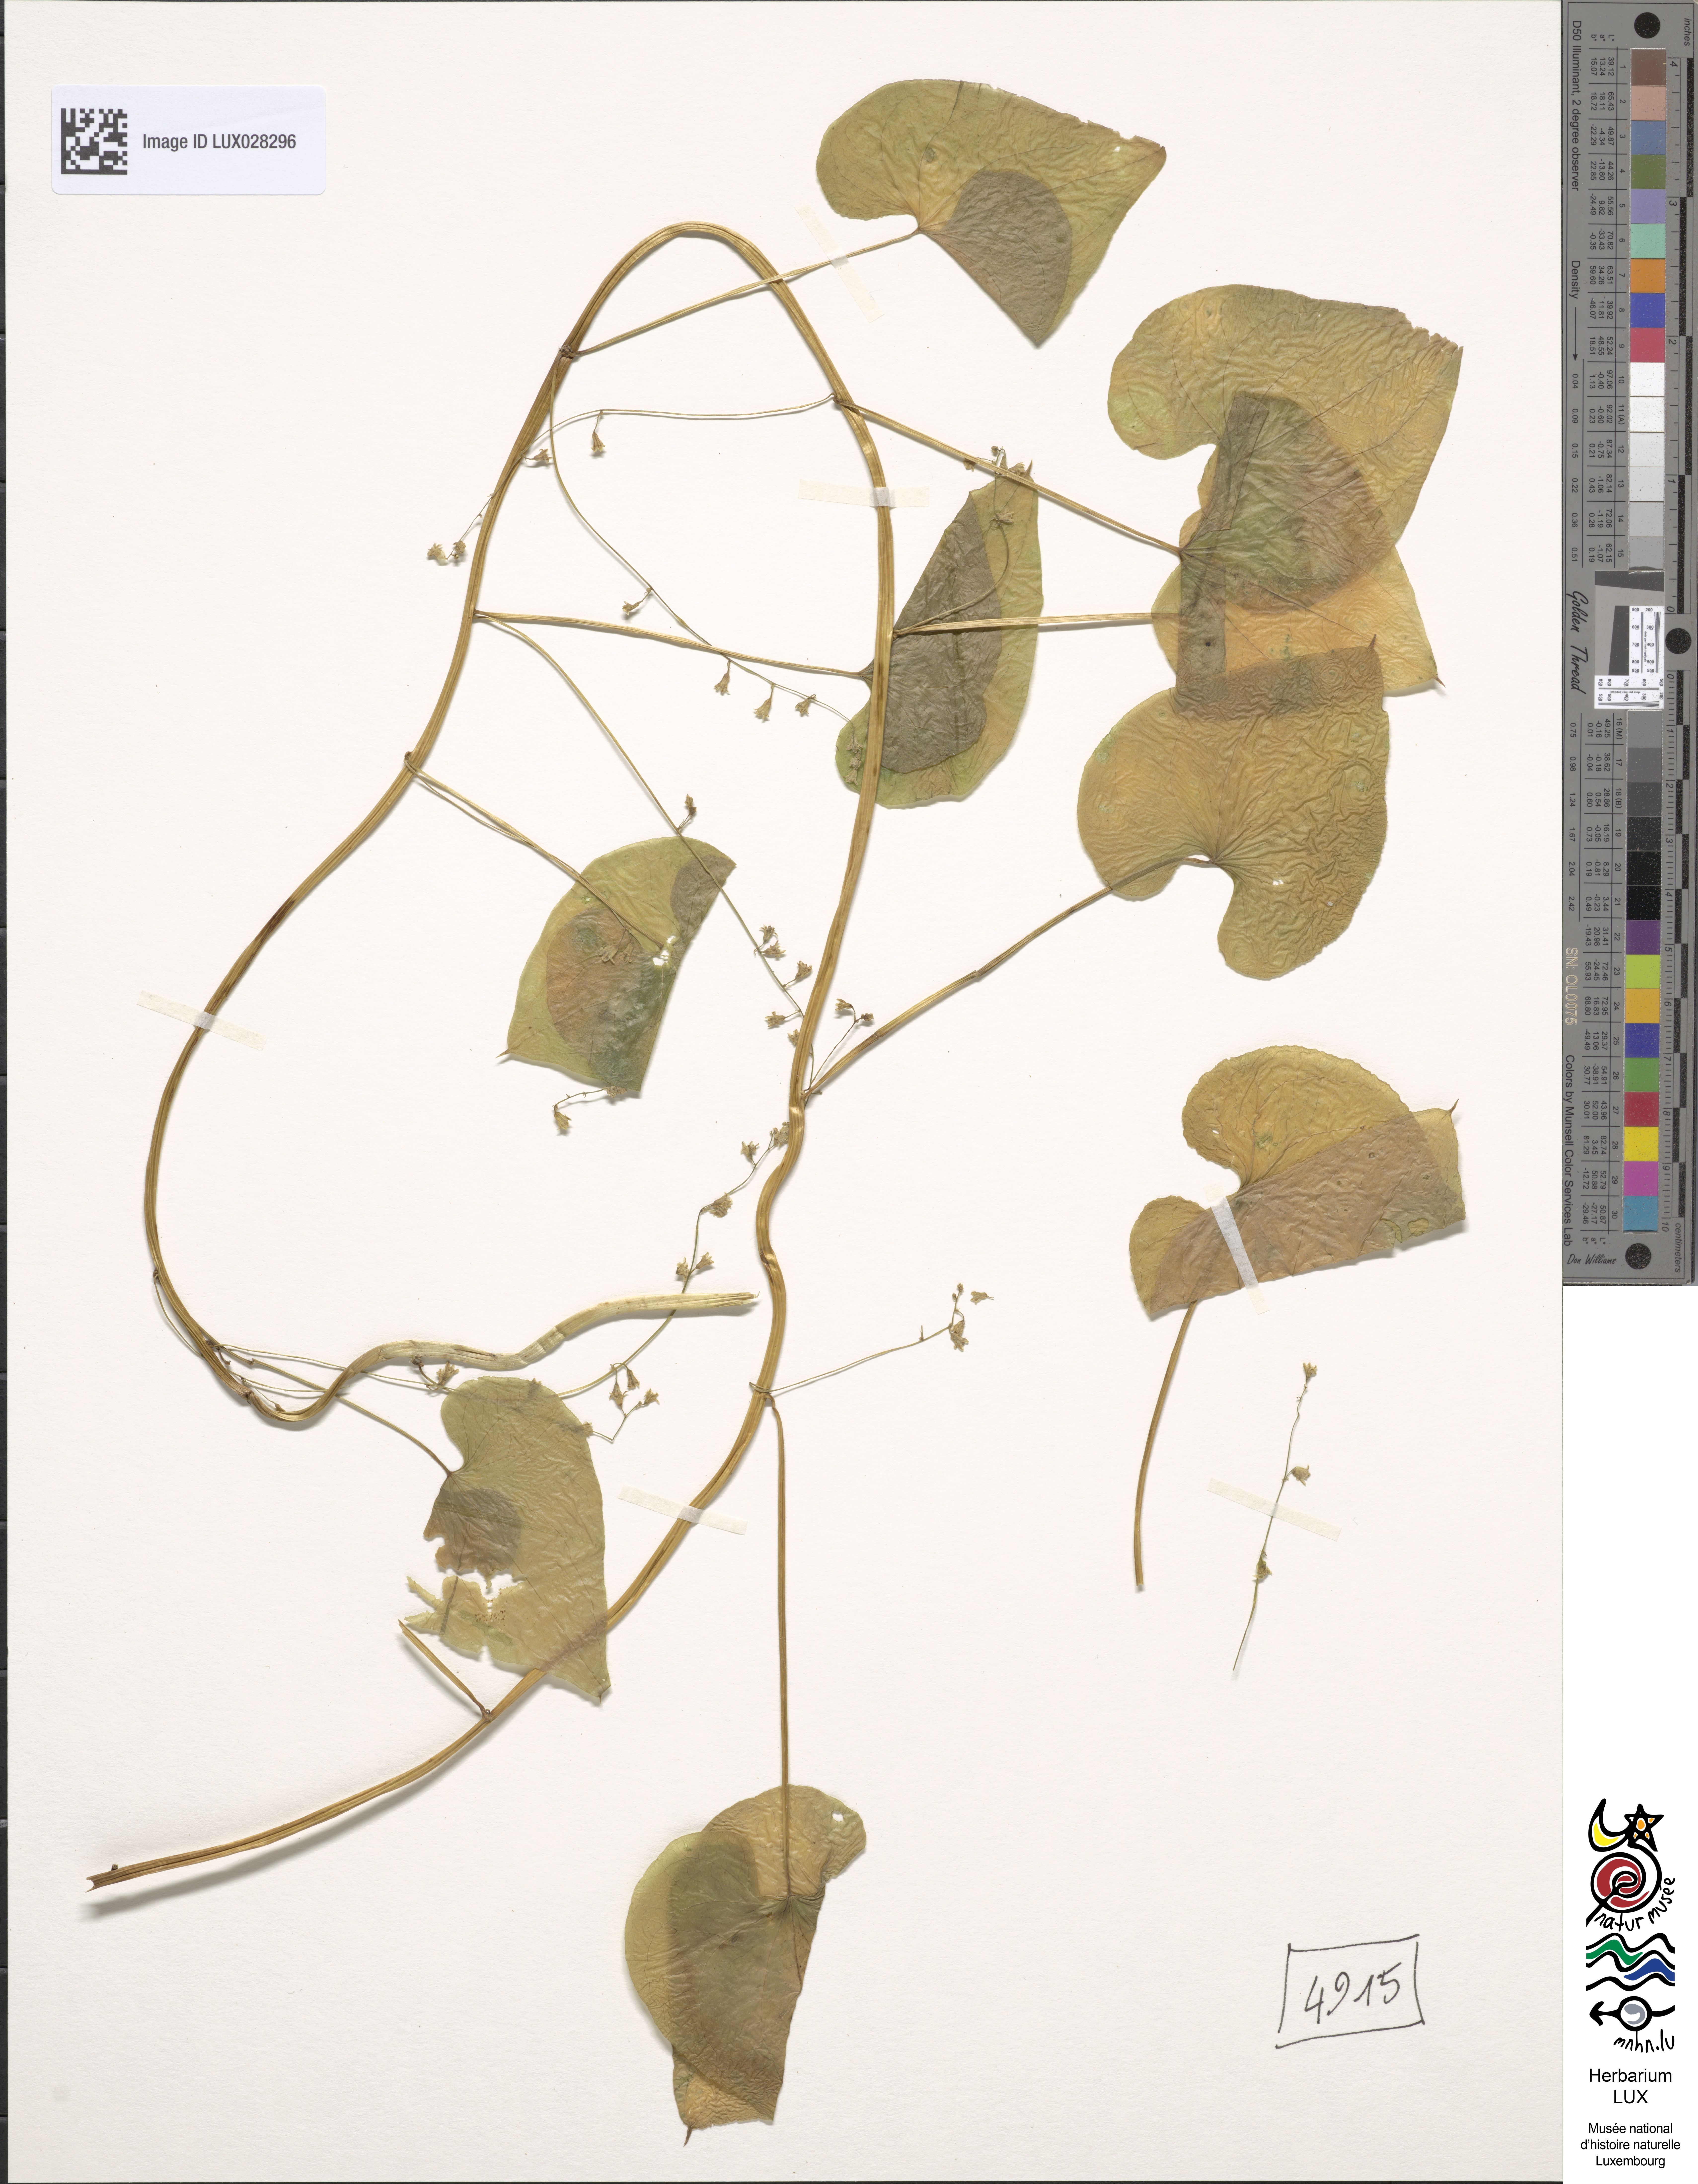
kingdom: Plantae
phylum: Tracheophyta
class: Liliopsida
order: Dioscoreales
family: Dioscoreaceae
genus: Dioscorea
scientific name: Dioscorea communis
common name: Black-bindweed
